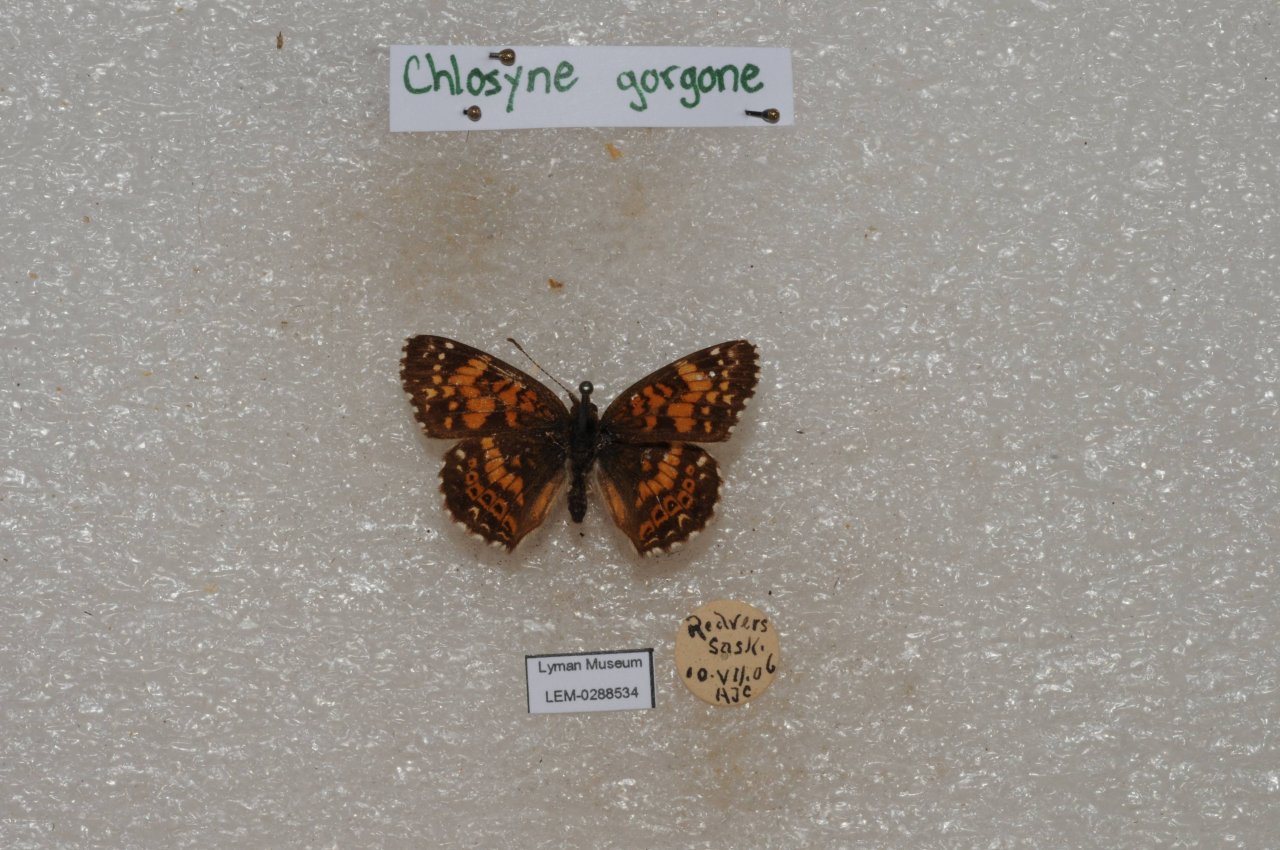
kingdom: Animalia
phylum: Arthropoda
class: Insecta
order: Lepidoptera
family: Nymphalidae
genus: Chlosyne
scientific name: Chlosyne gorgone
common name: Gorgone Checkerspot
